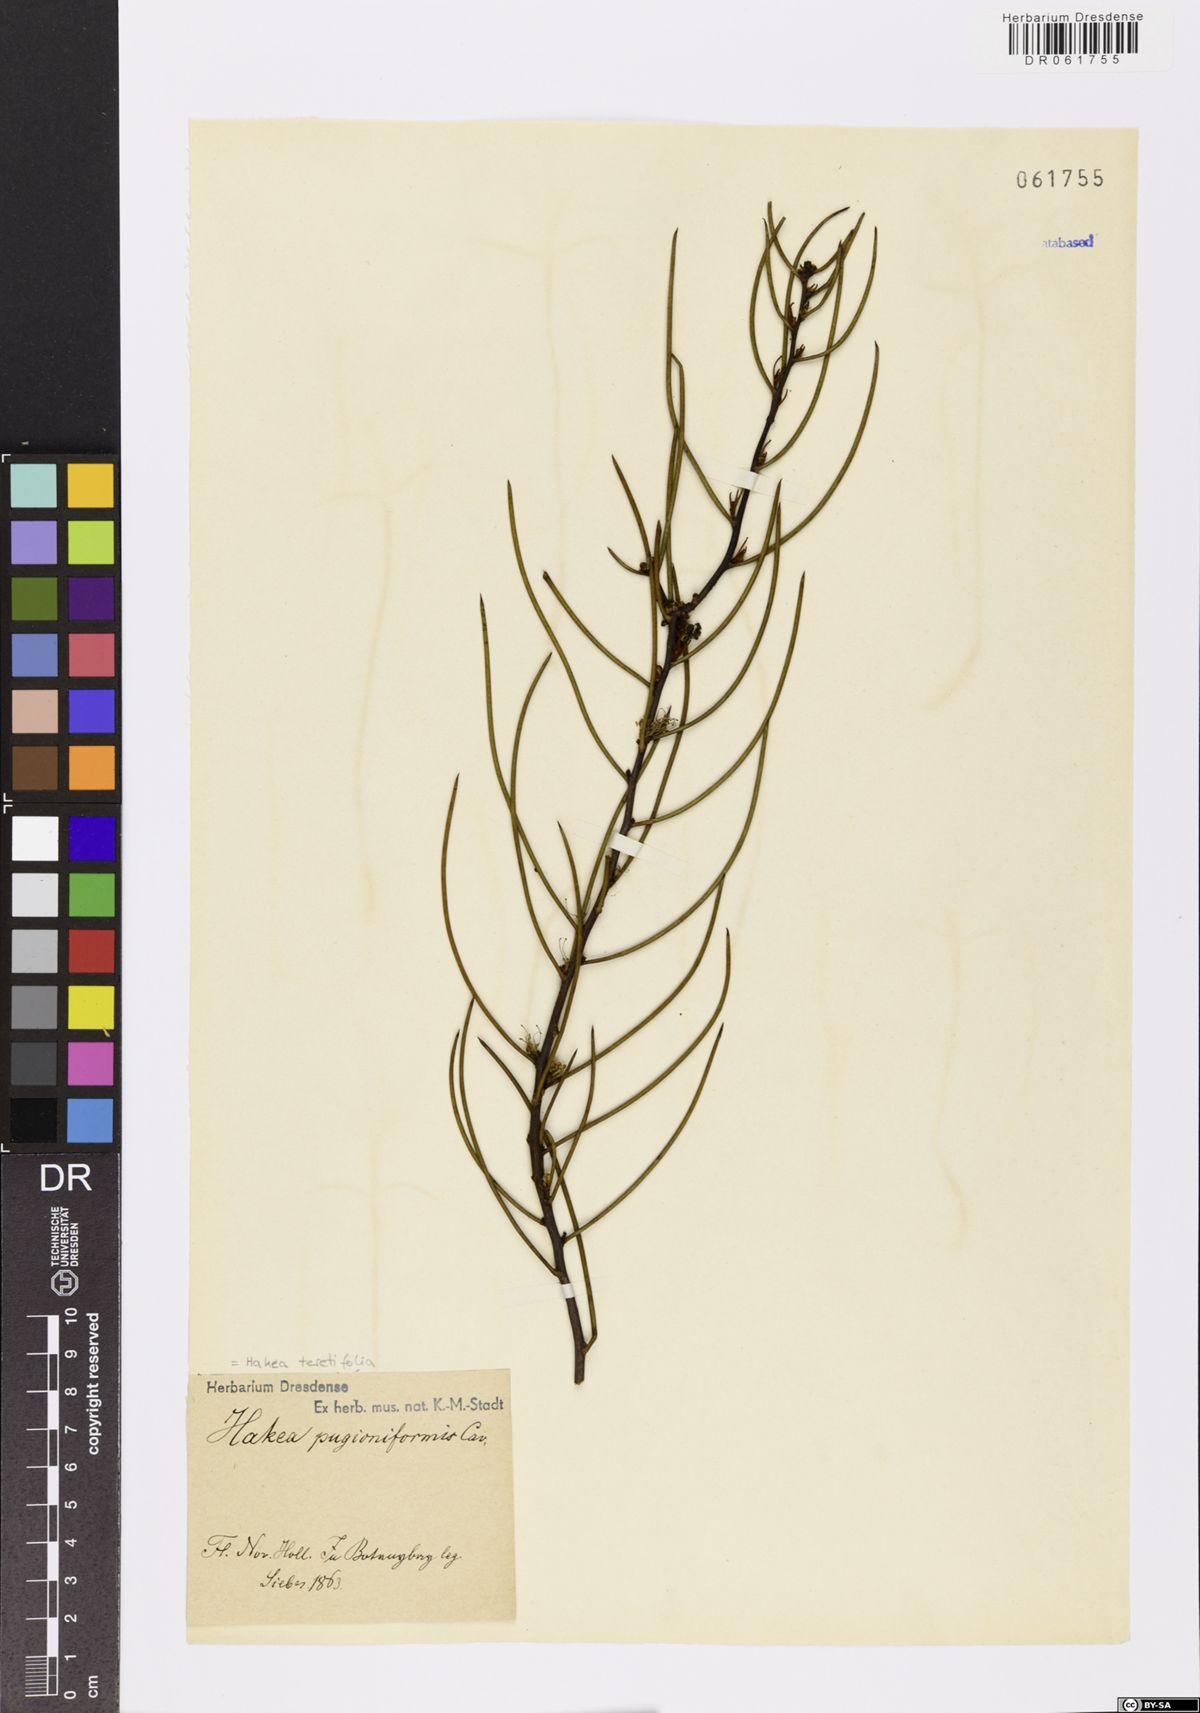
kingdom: Plantae
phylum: Tracheophyta
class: Magnoliopsida
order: Proteales
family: Proteaceae
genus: Hakea
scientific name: Hakea teretifolia
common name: Dagger hakea
